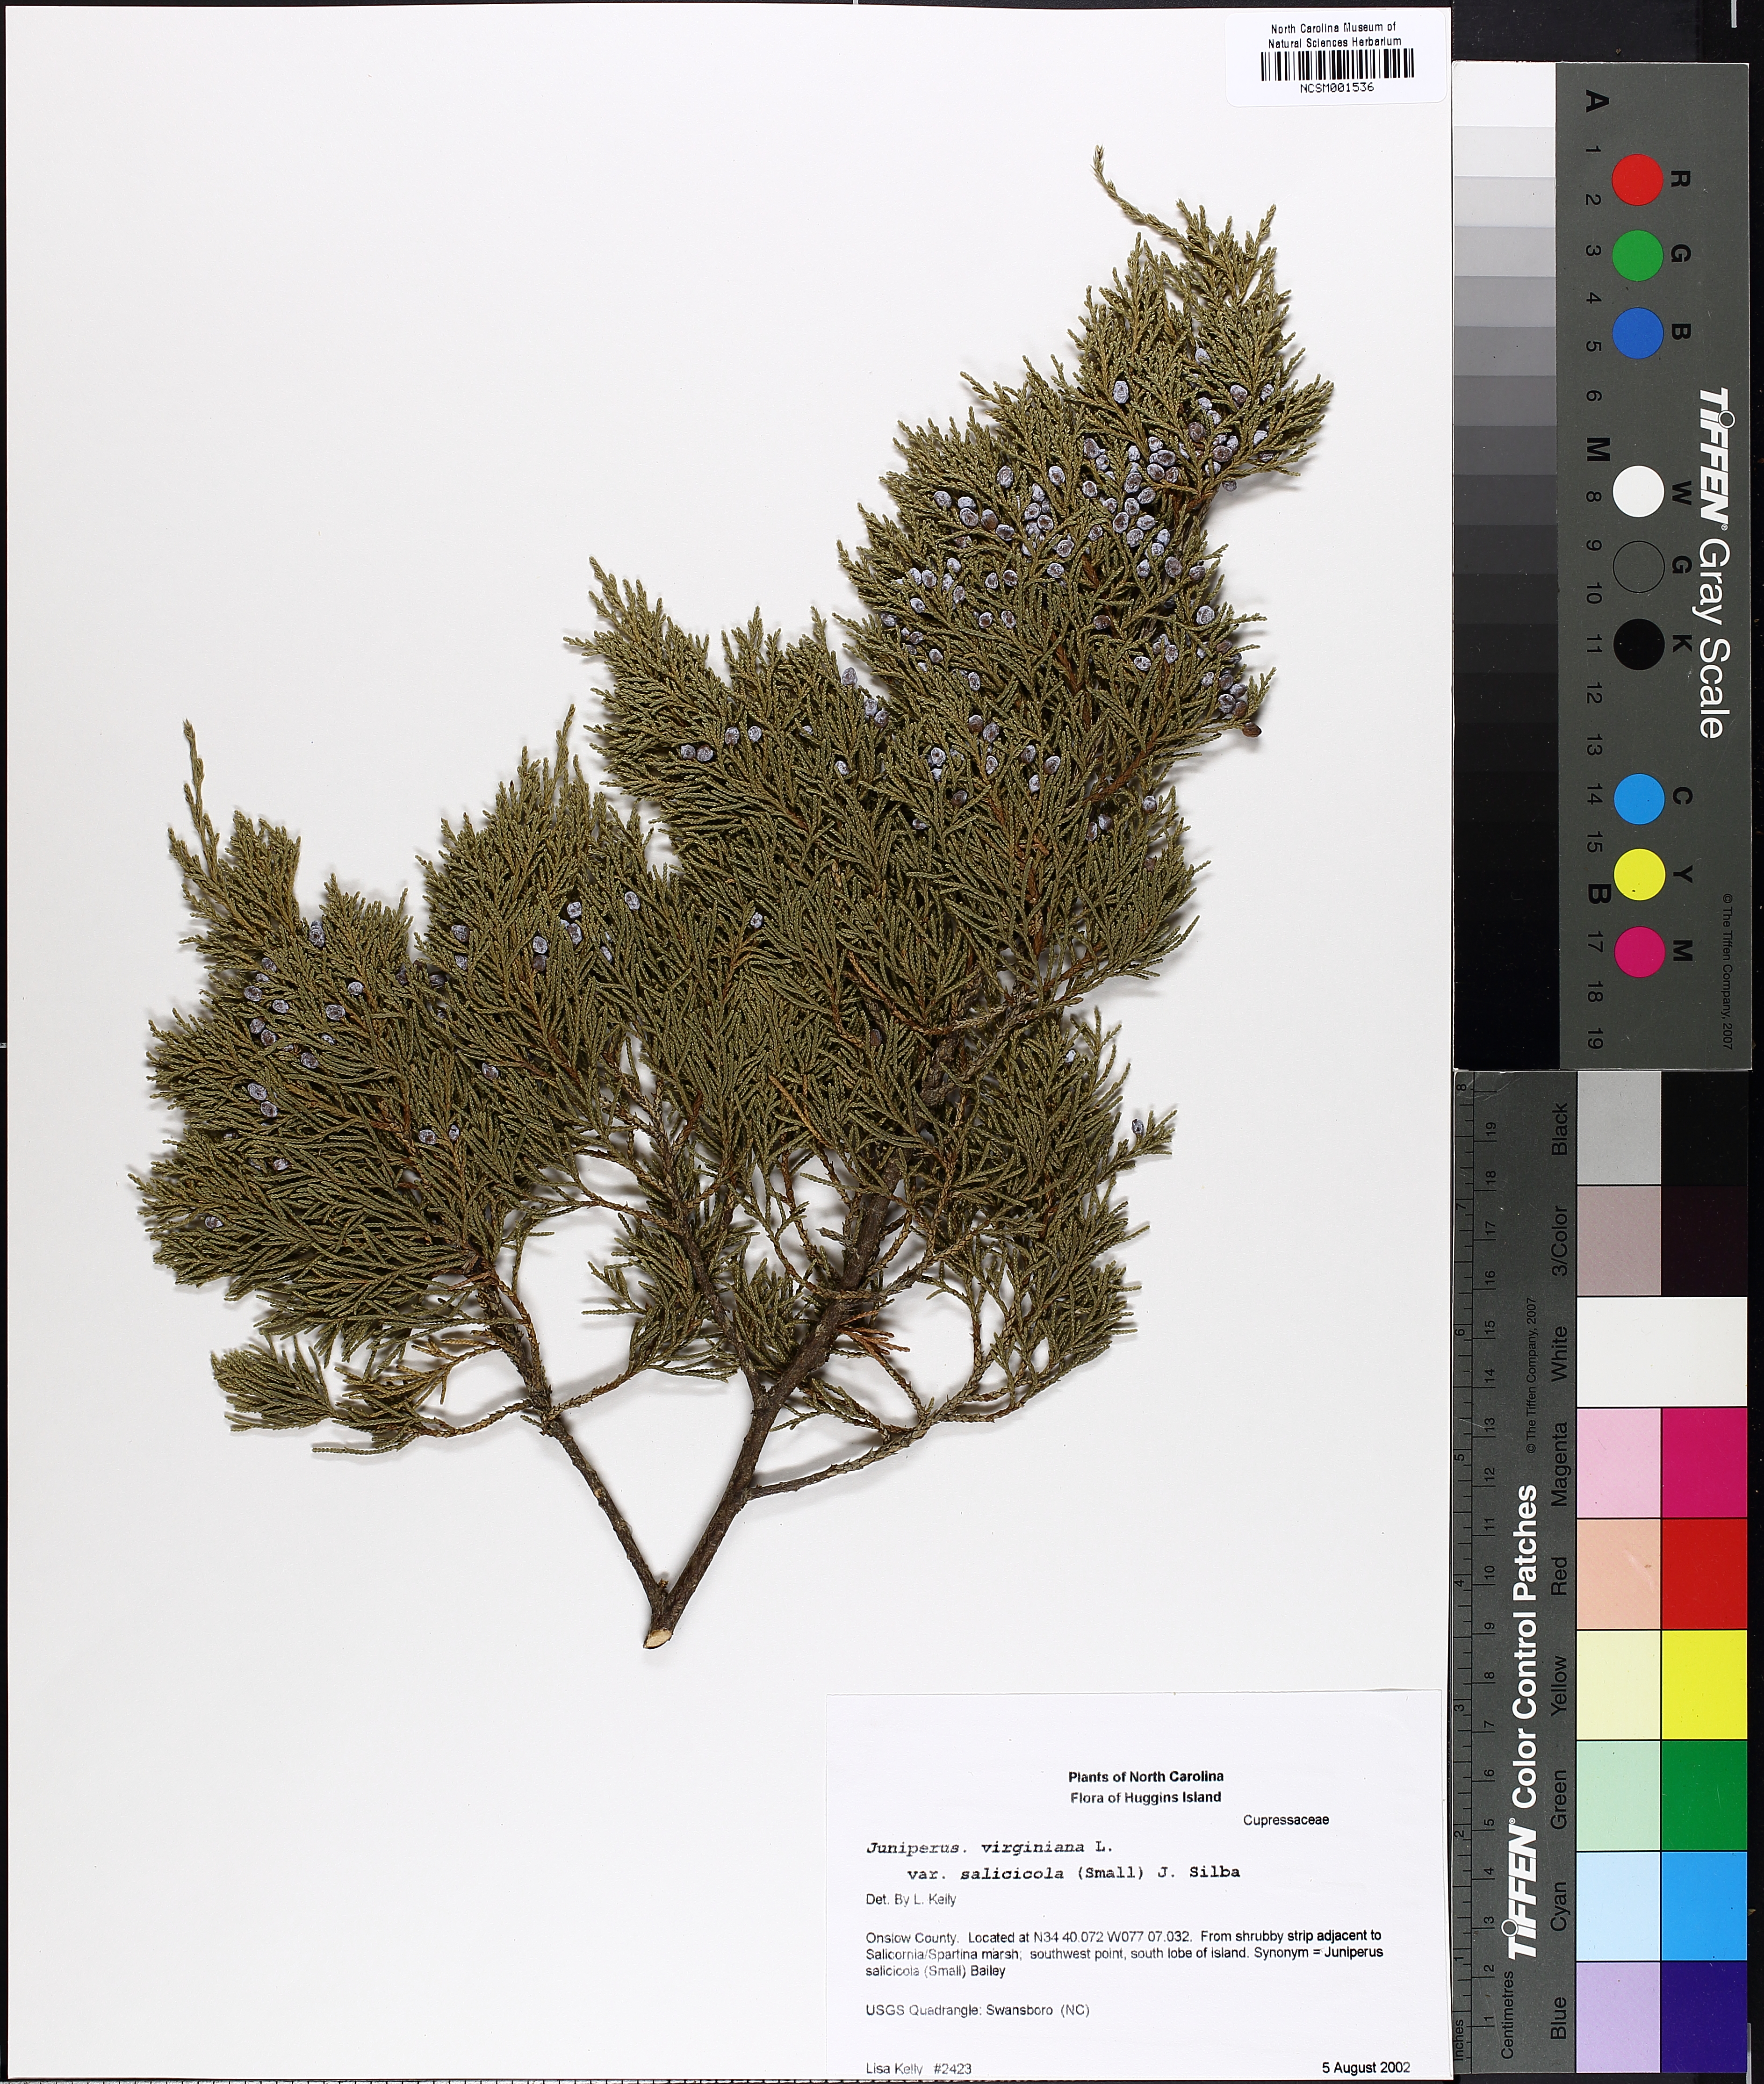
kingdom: Plantae
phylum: Tracheophyta
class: Pinopsida
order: Pinales
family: Cupressaceae
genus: Juniperus
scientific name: Juniperus virginiana
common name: Red juniper
